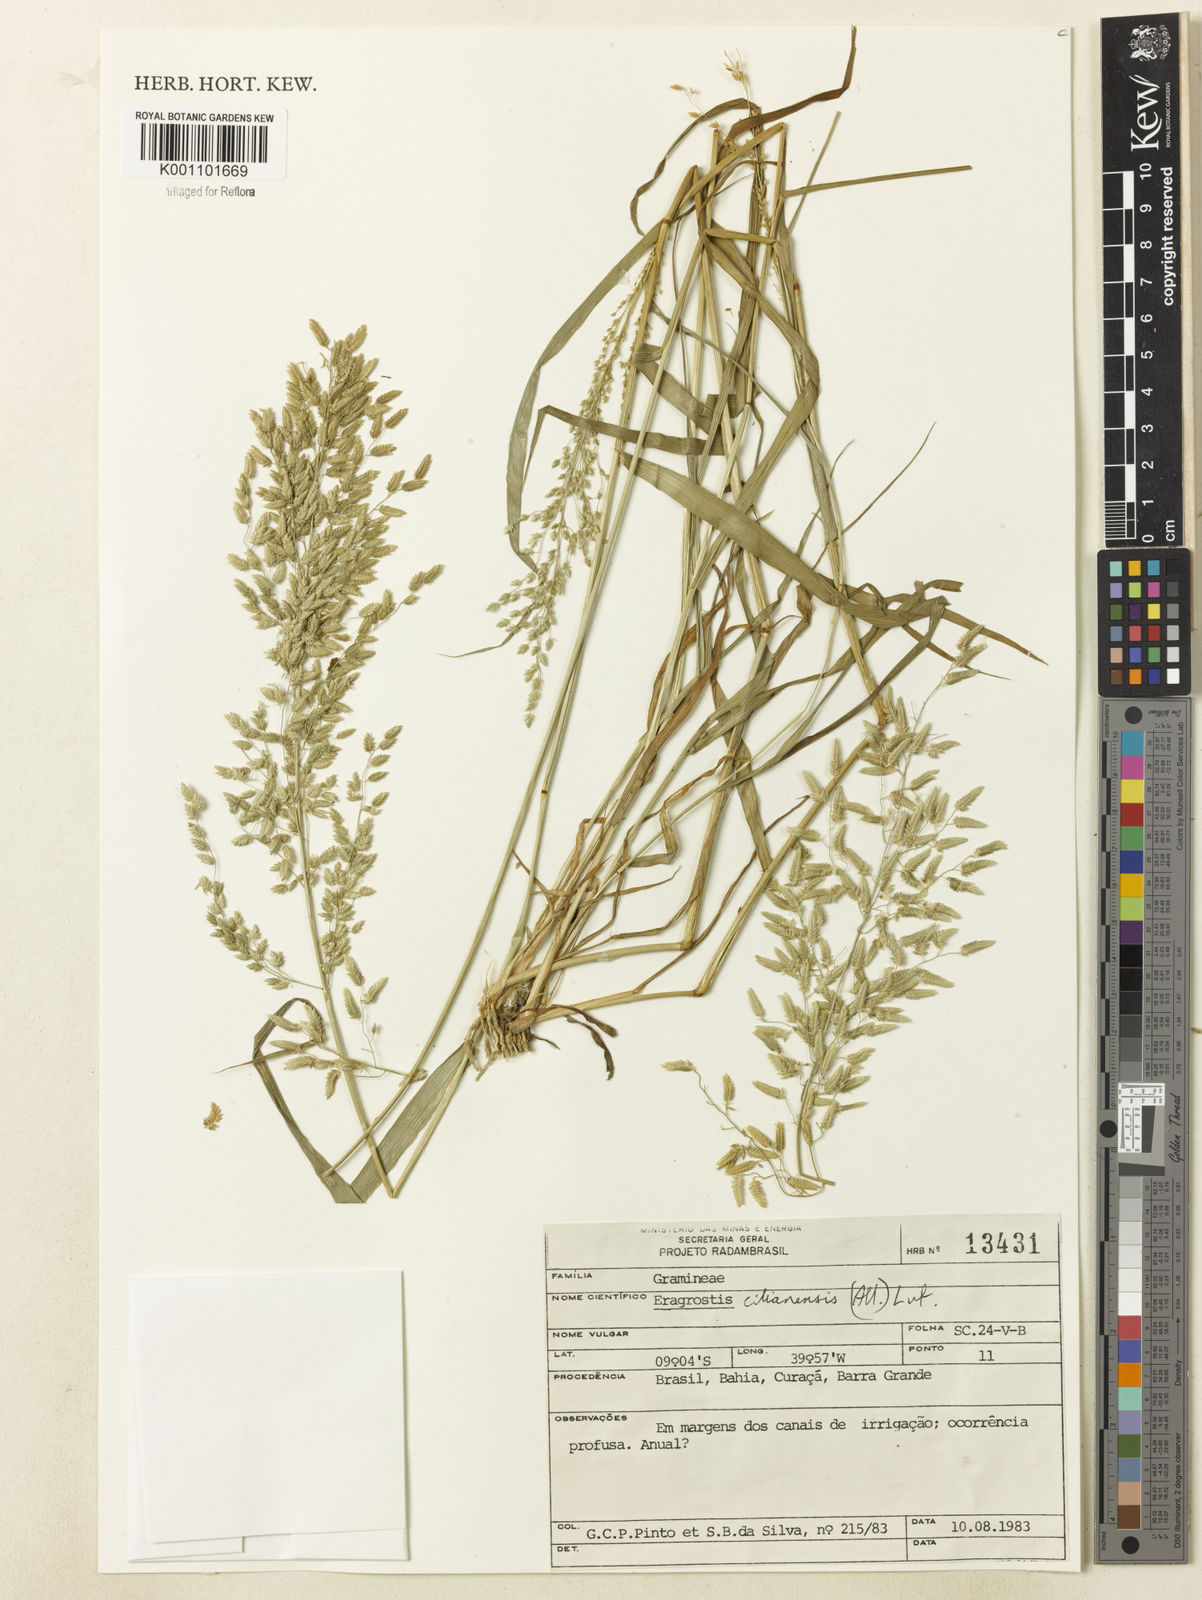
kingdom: Plantae
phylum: Tracheophyta
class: Liliopsida
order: Poales
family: Poaceae
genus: Eragrostis
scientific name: Eragrostis cilianensis
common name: Stinkgrass
